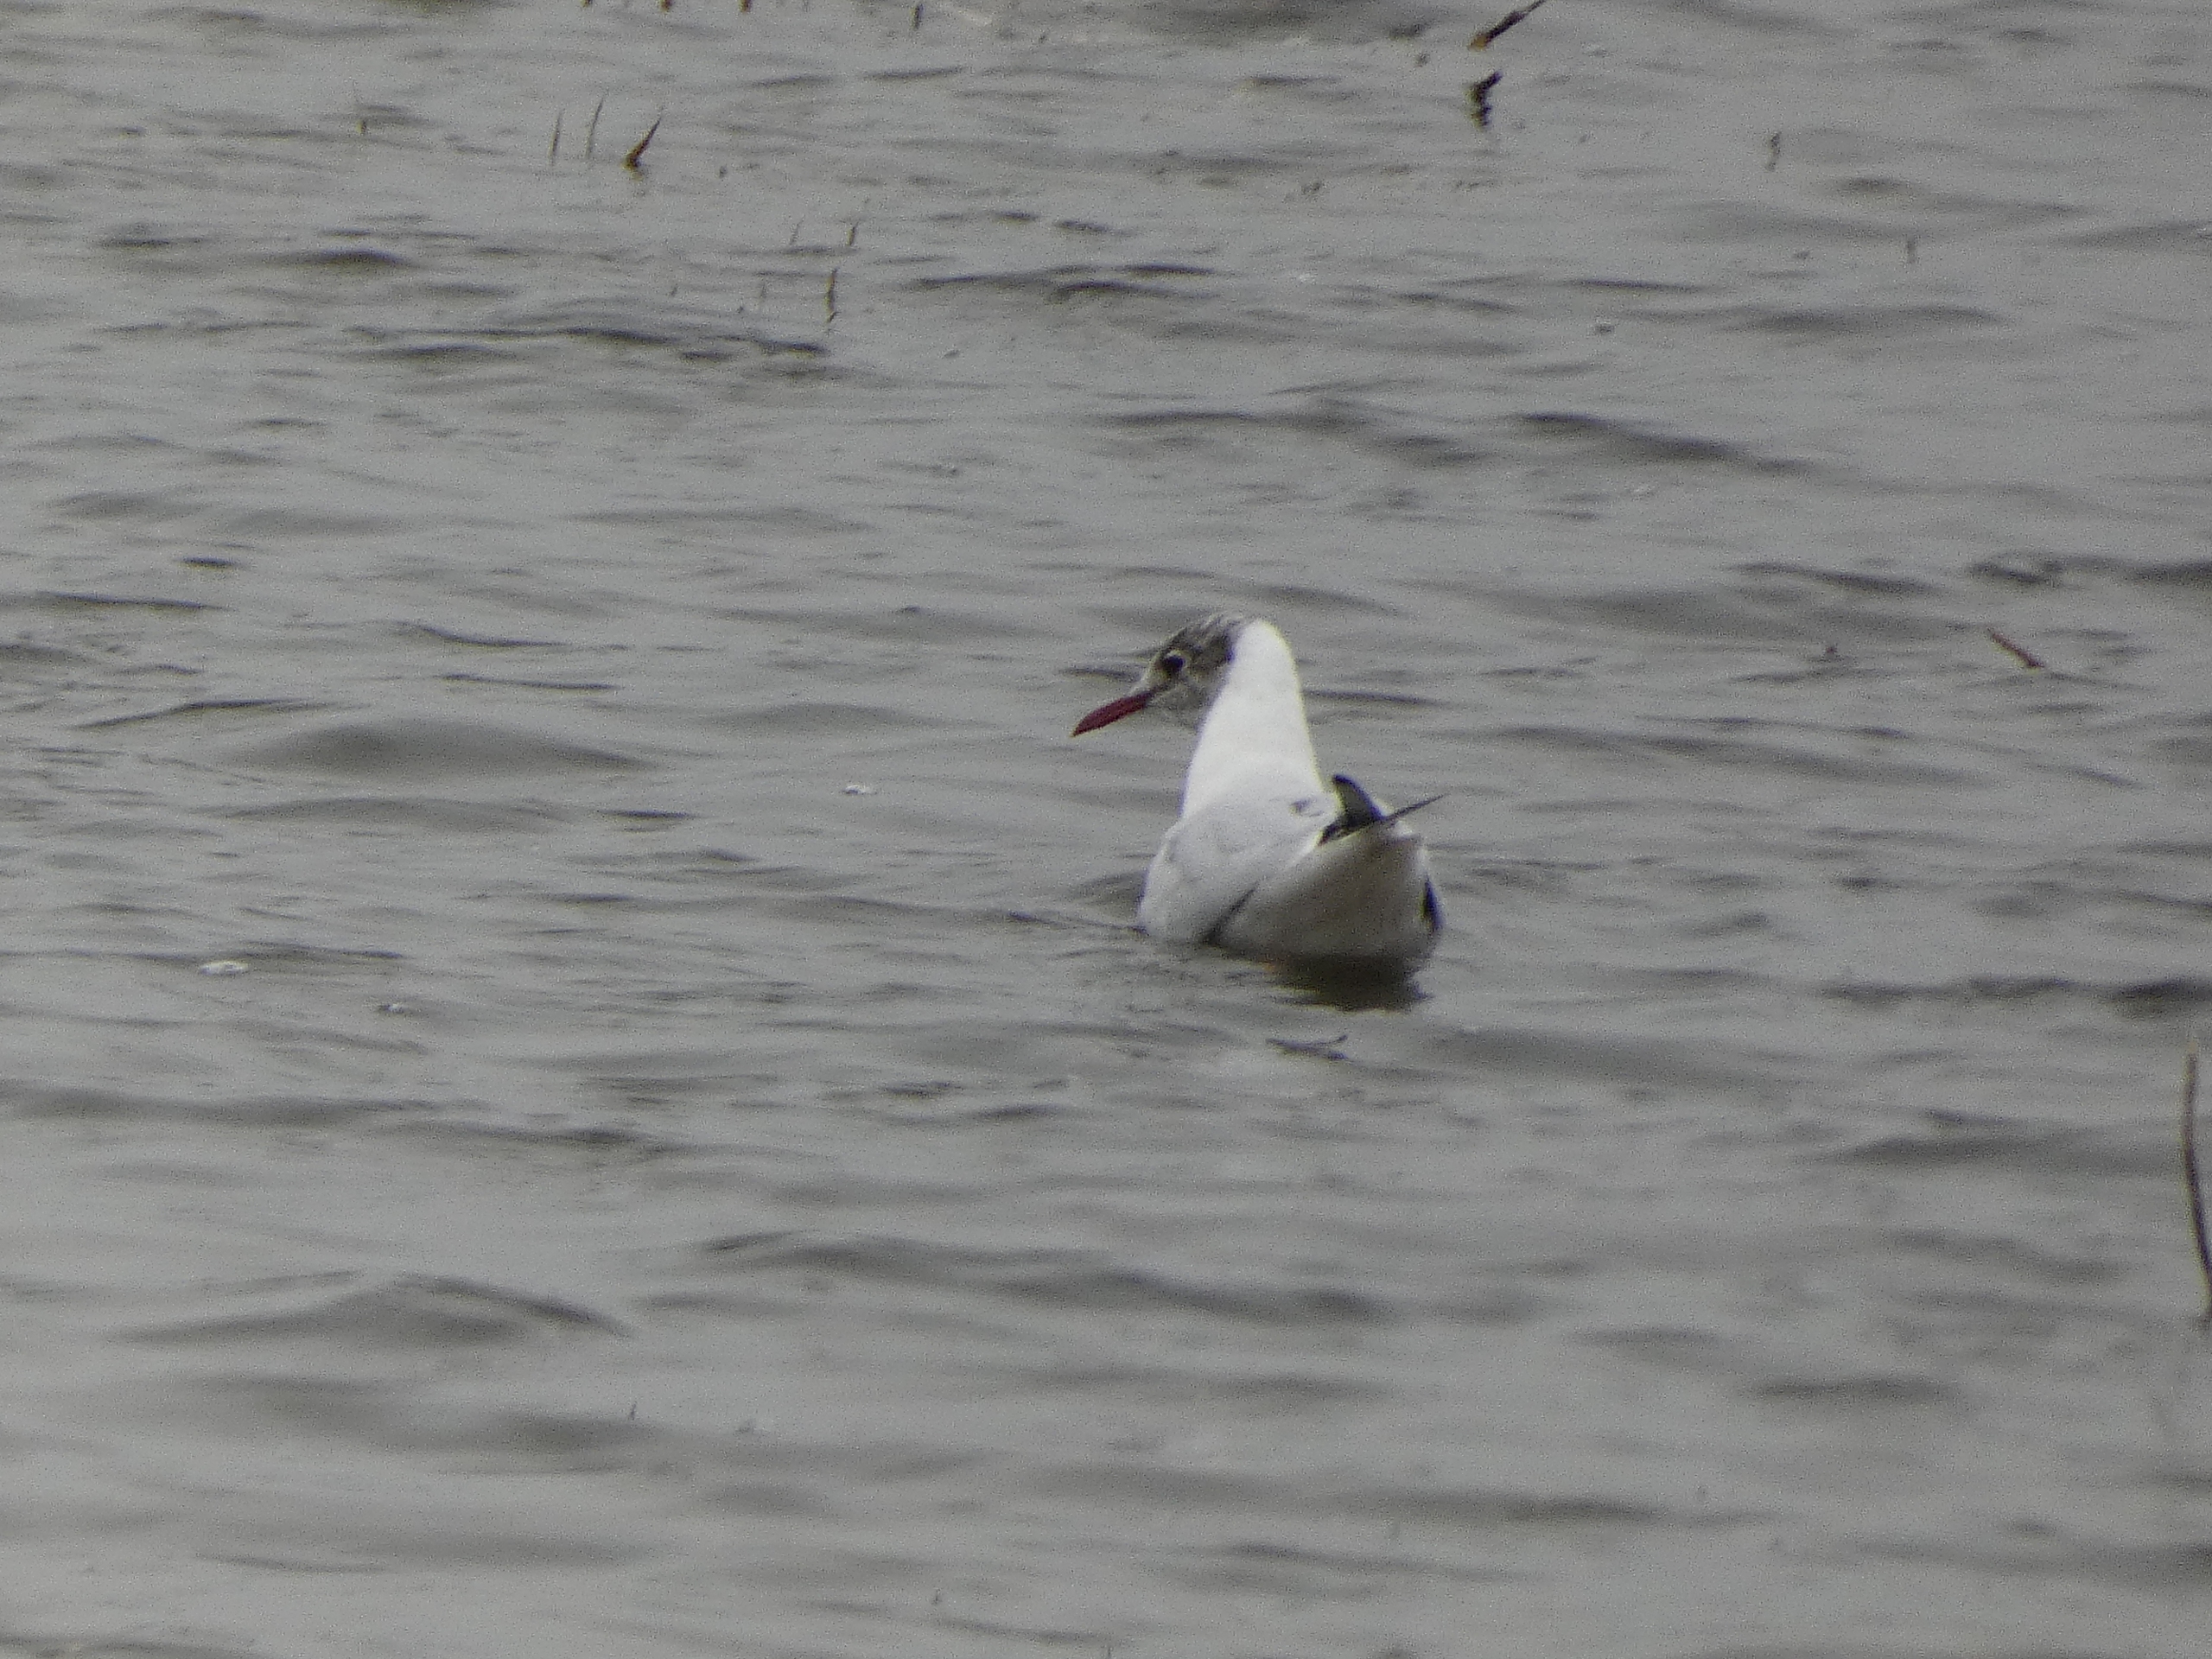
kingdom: Animalia
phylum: Chordata
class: Aves
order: Charadriiformes
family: Laridae
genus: Chroicocephalus
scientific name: Chroicocephalus ridibundus
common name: Hættemåge
